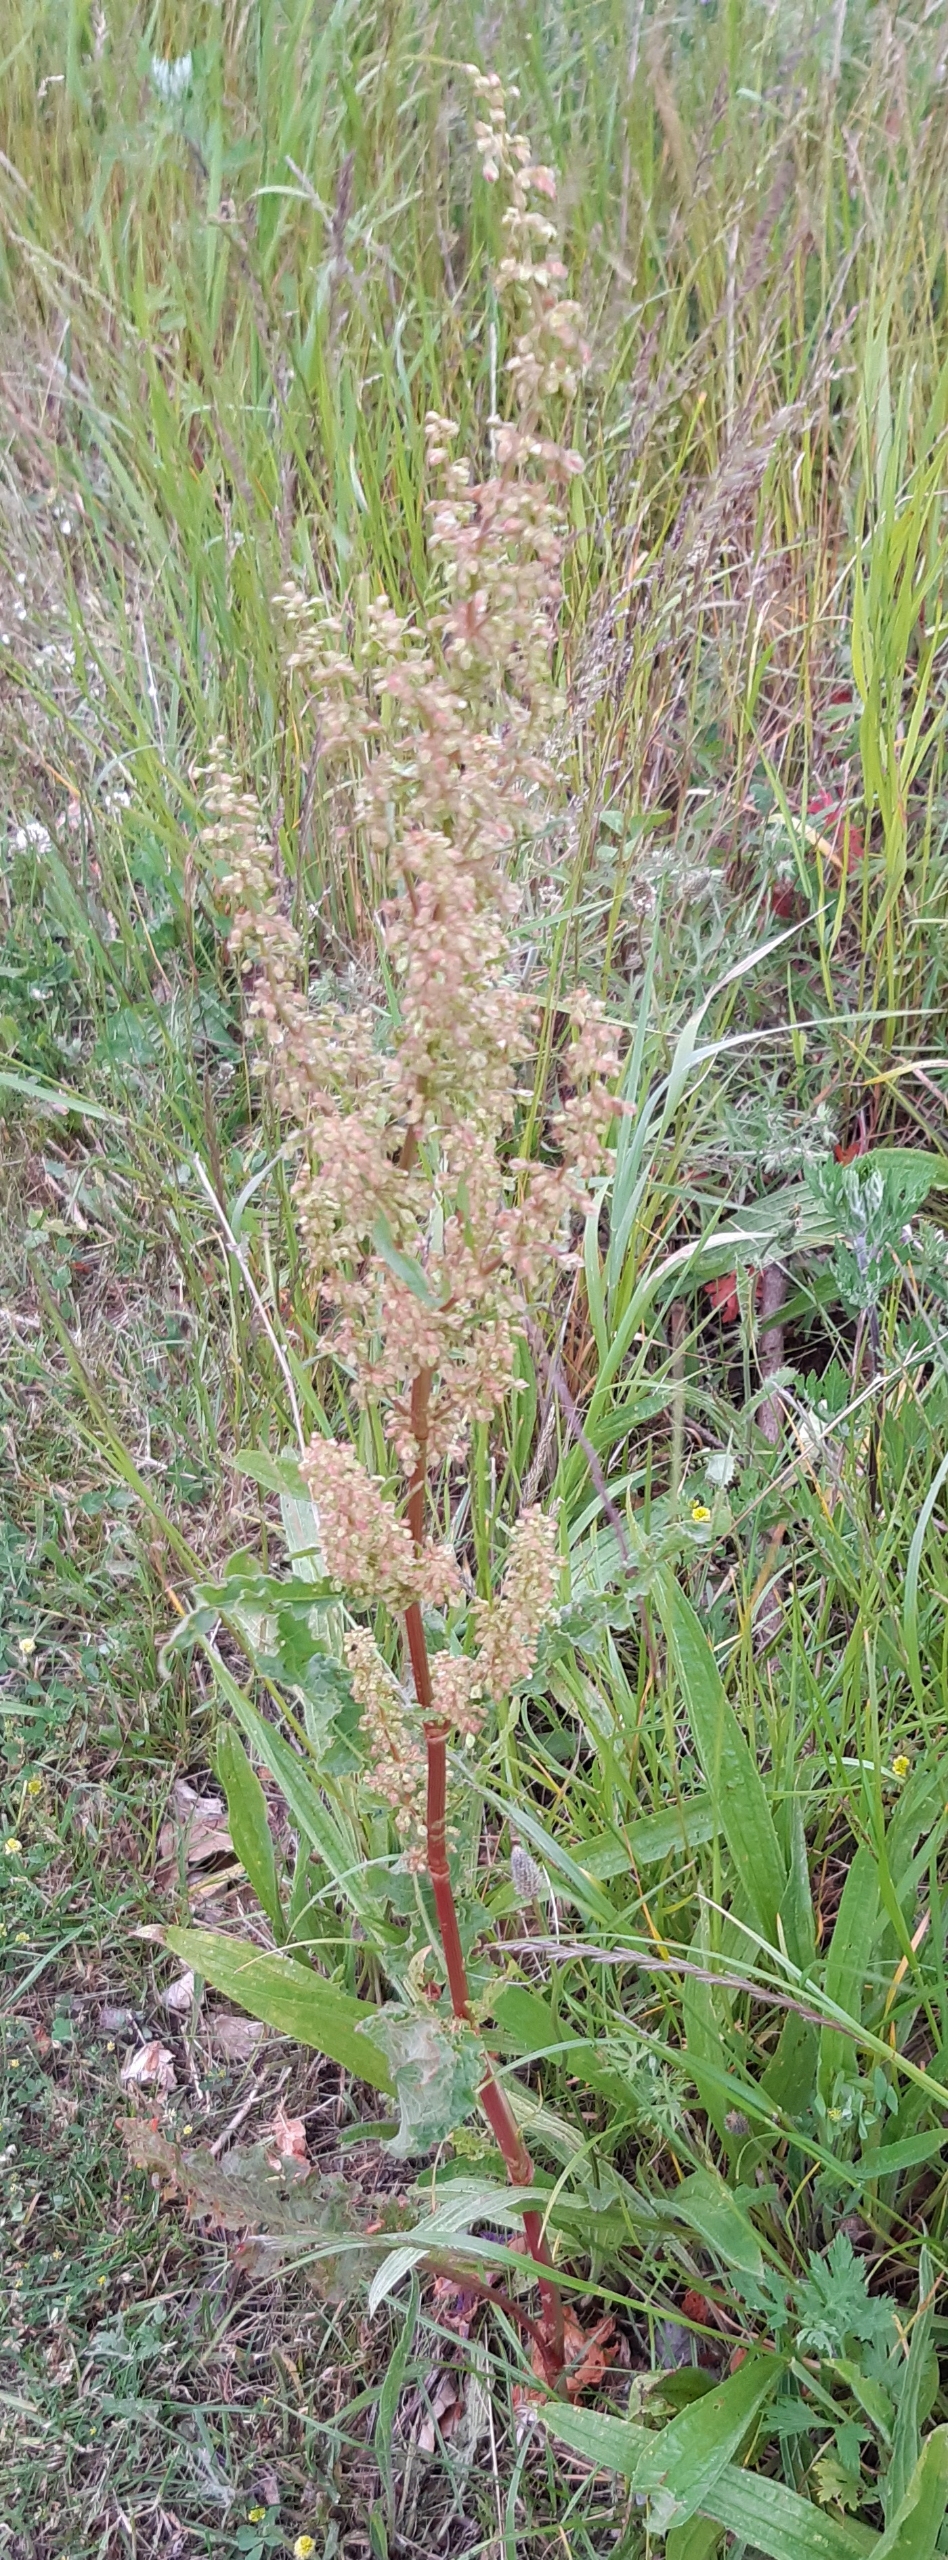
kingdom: Plantae
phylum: Tracheophyta
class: Magnoliopsida
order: Caryophyllales
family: Polygonaceae
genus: Rumex
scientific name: Rumex crispus
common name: Kruset skræppe
